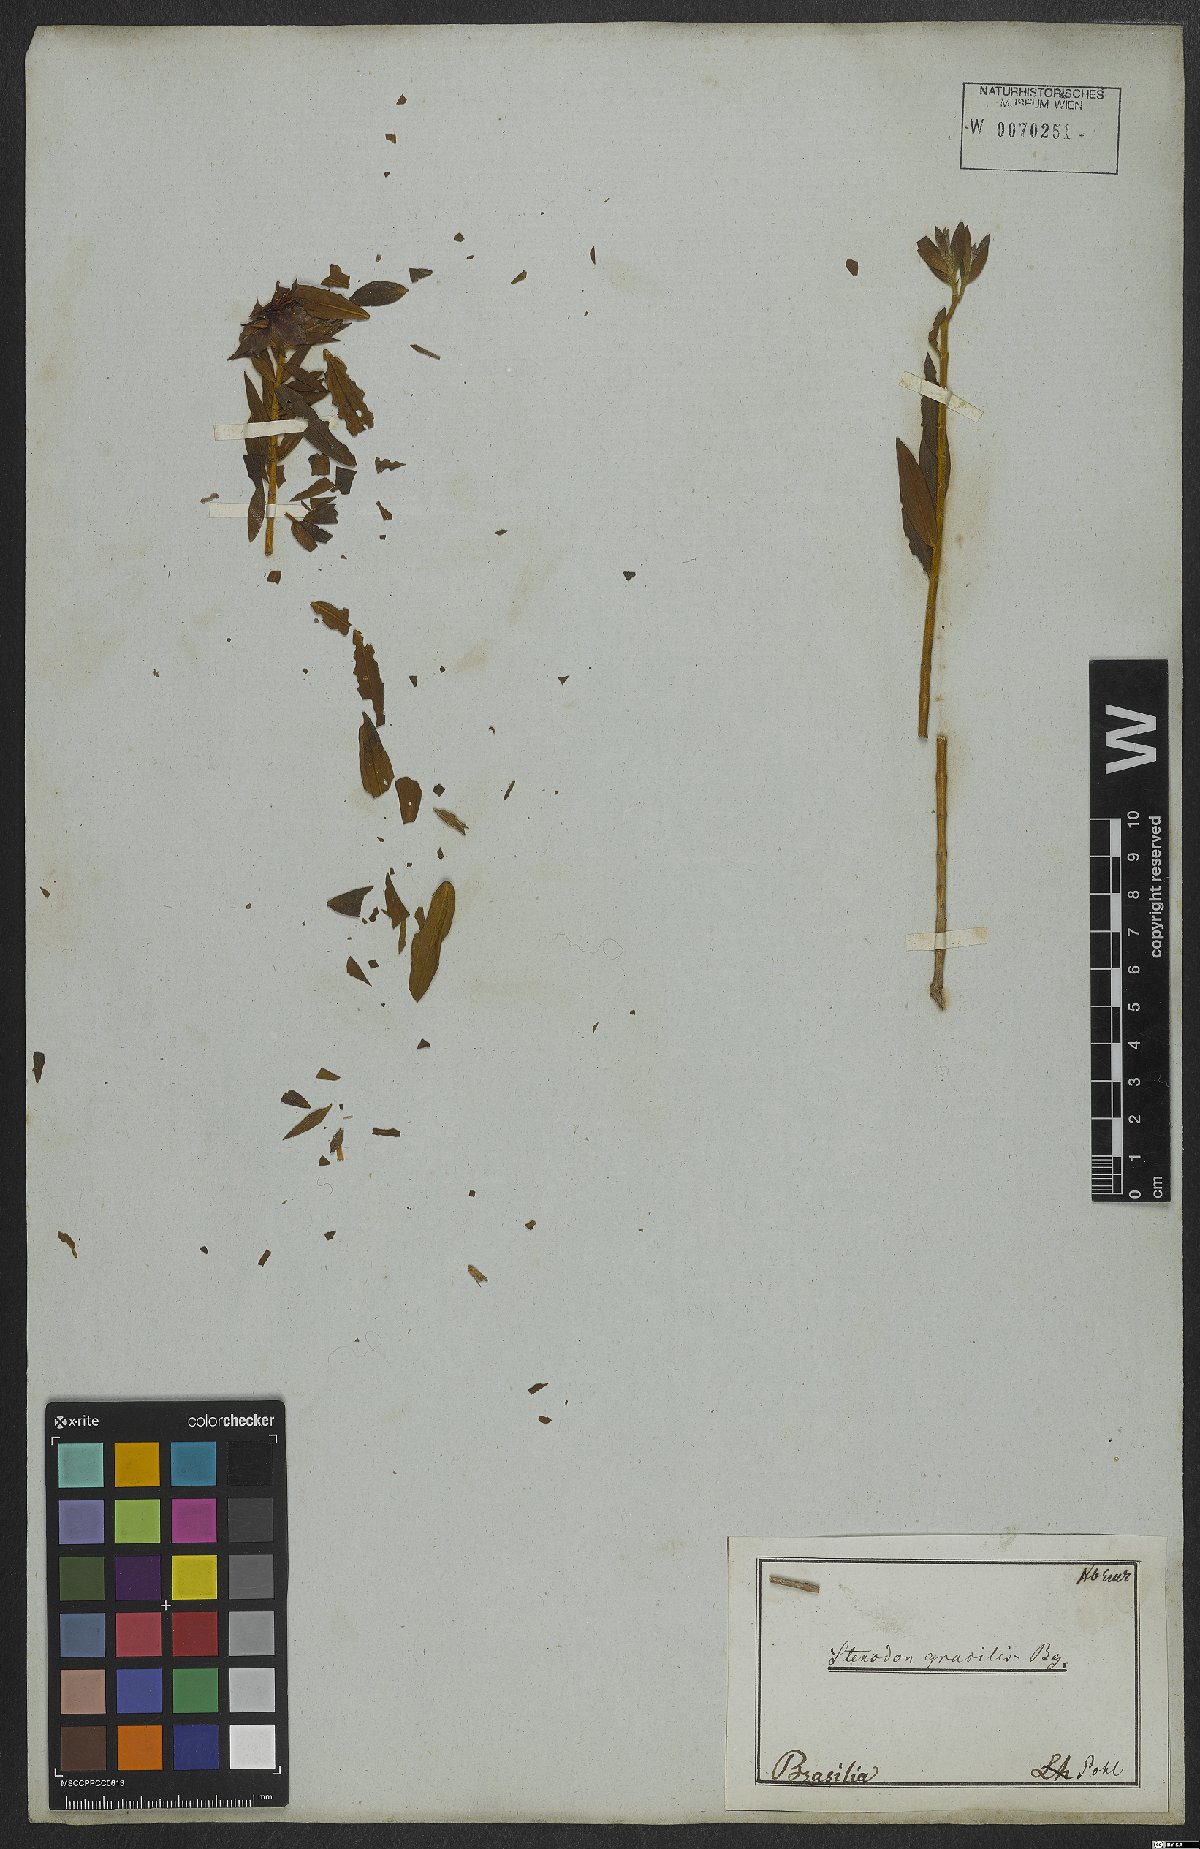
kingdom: Plantae
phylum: Tracheophyta
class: Magnoliopsida
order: Myrtales
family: Melastomataceae
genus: Microlicia
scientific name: Microlicia neogracilis
